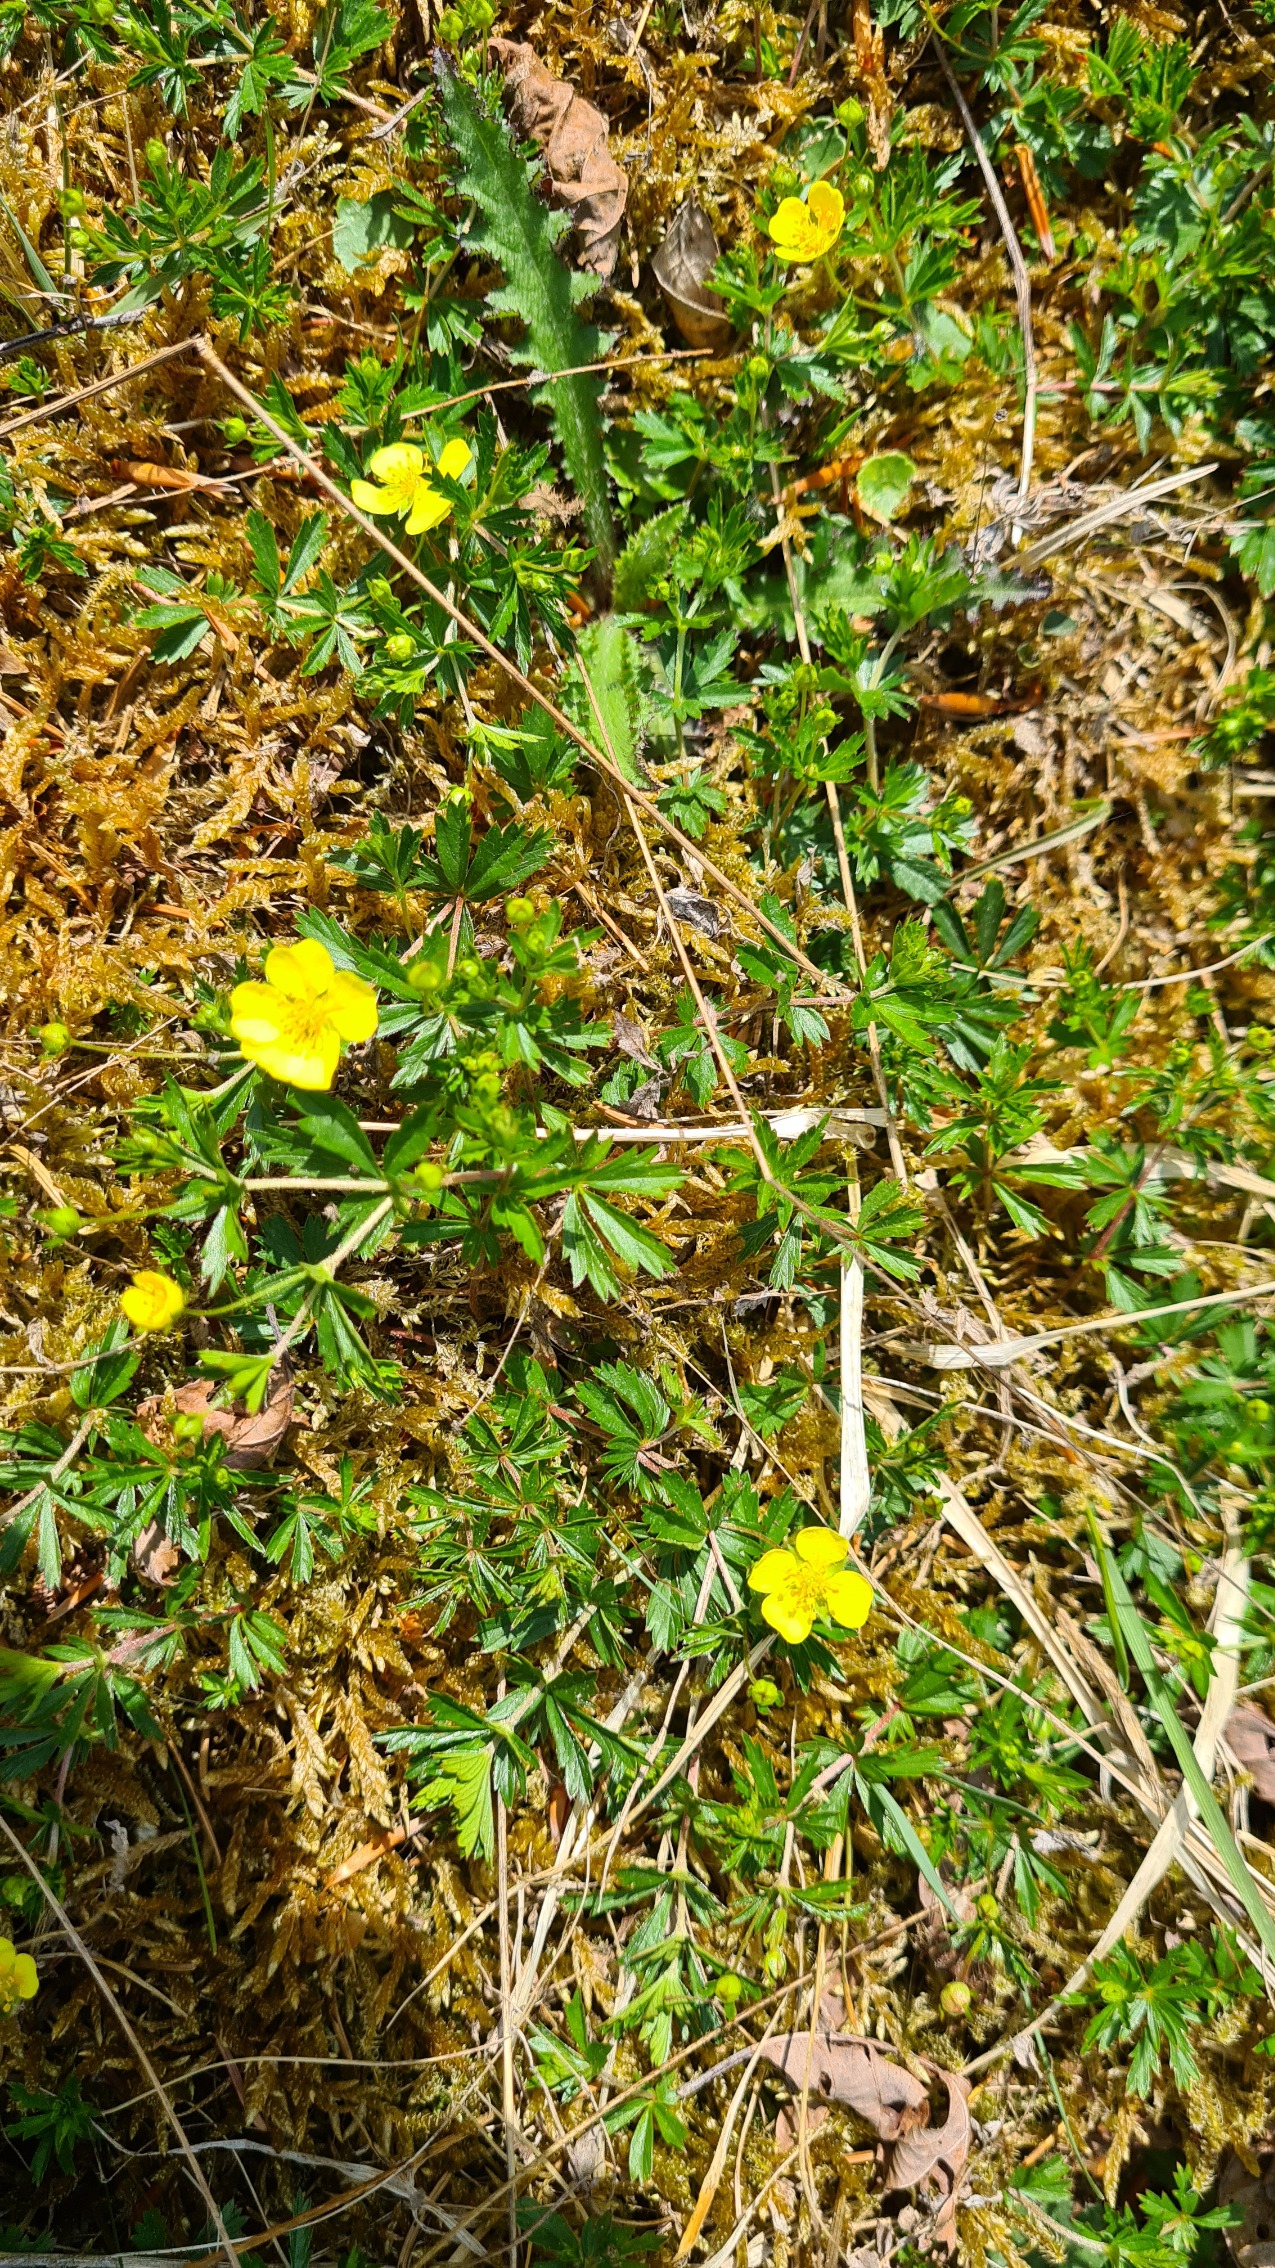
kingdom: Plantae
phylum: Tracheophyta
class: Magnoliopsida
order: Rosales
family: Rosaceae
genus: Potentilla
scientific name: Potentilla erecta
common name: Tormentil
